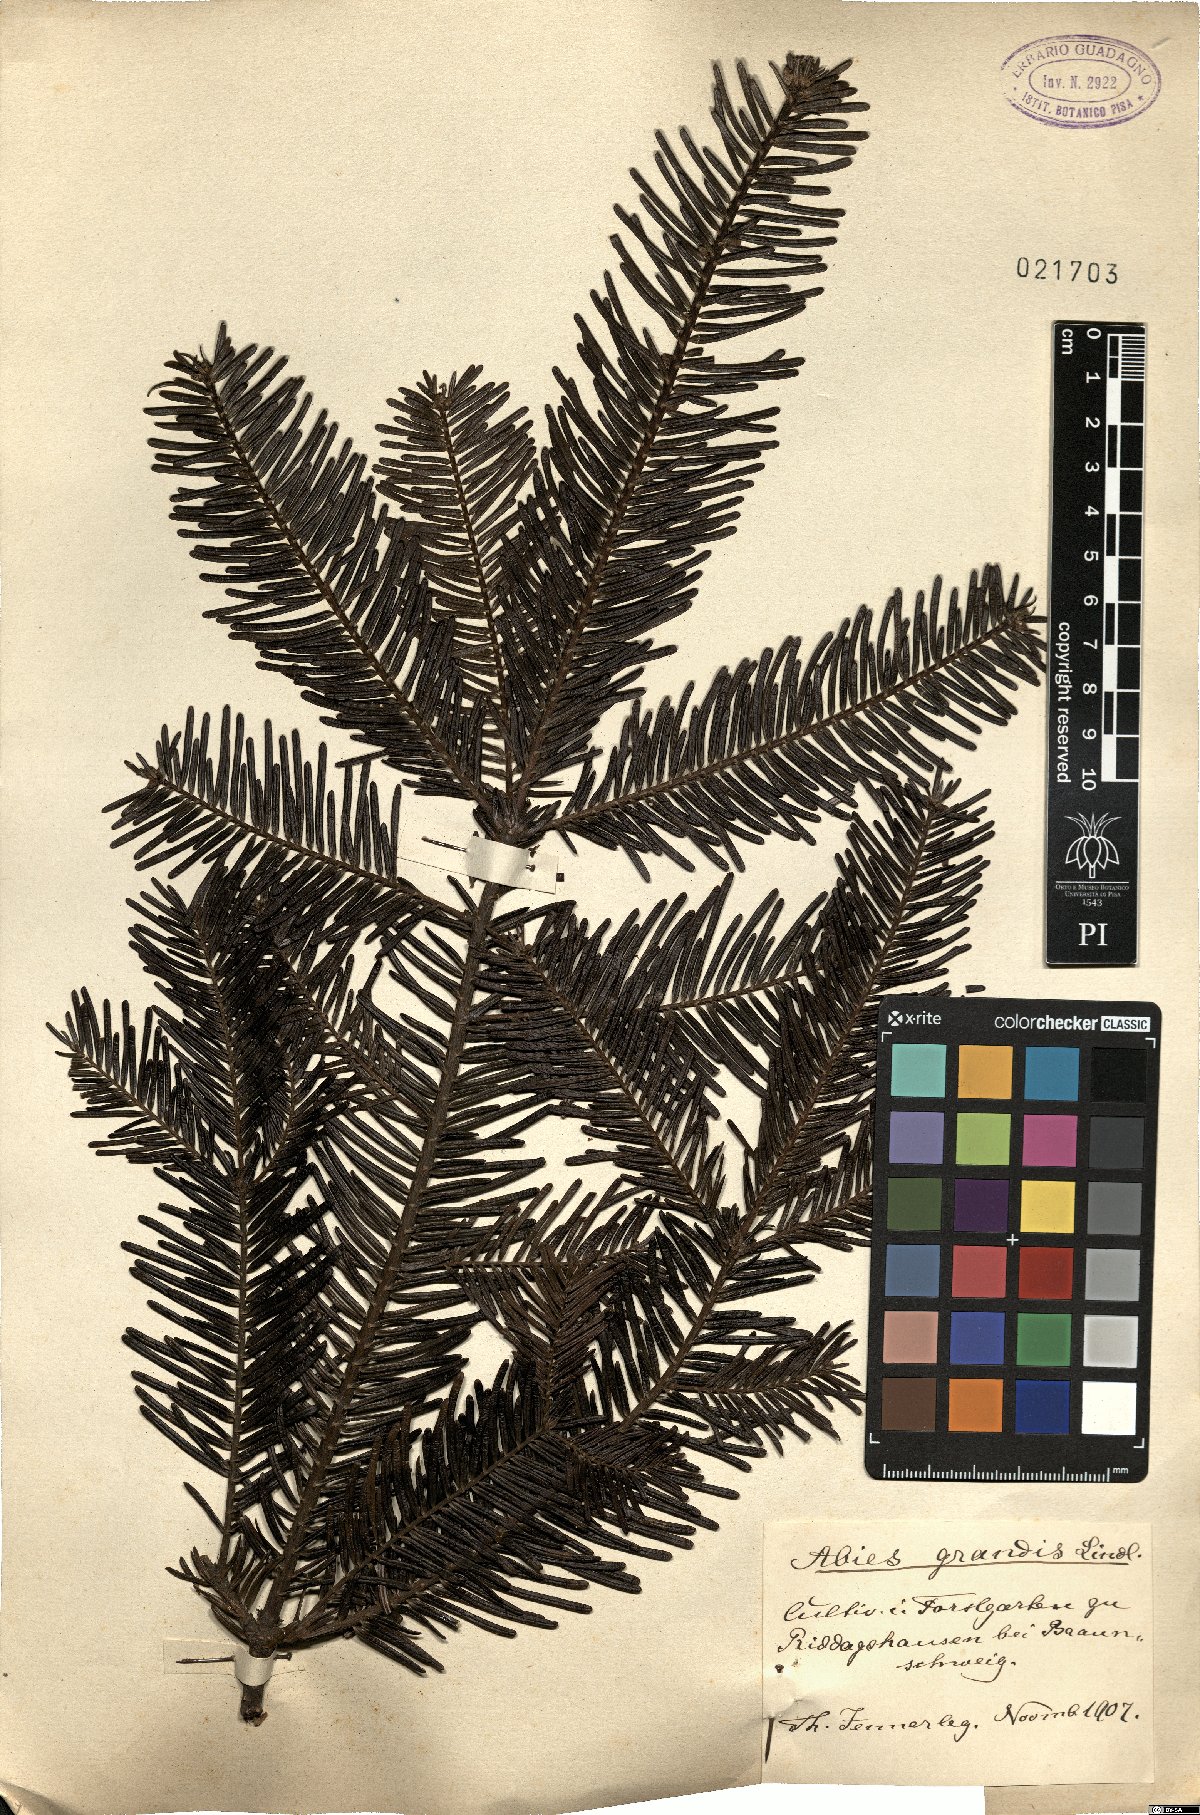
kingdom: Plantae
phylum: Tracheophyta
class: Pinopsida
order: Pinales
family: Pinaceae
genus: Abies
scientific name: Abies grandis
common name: Giant fir
